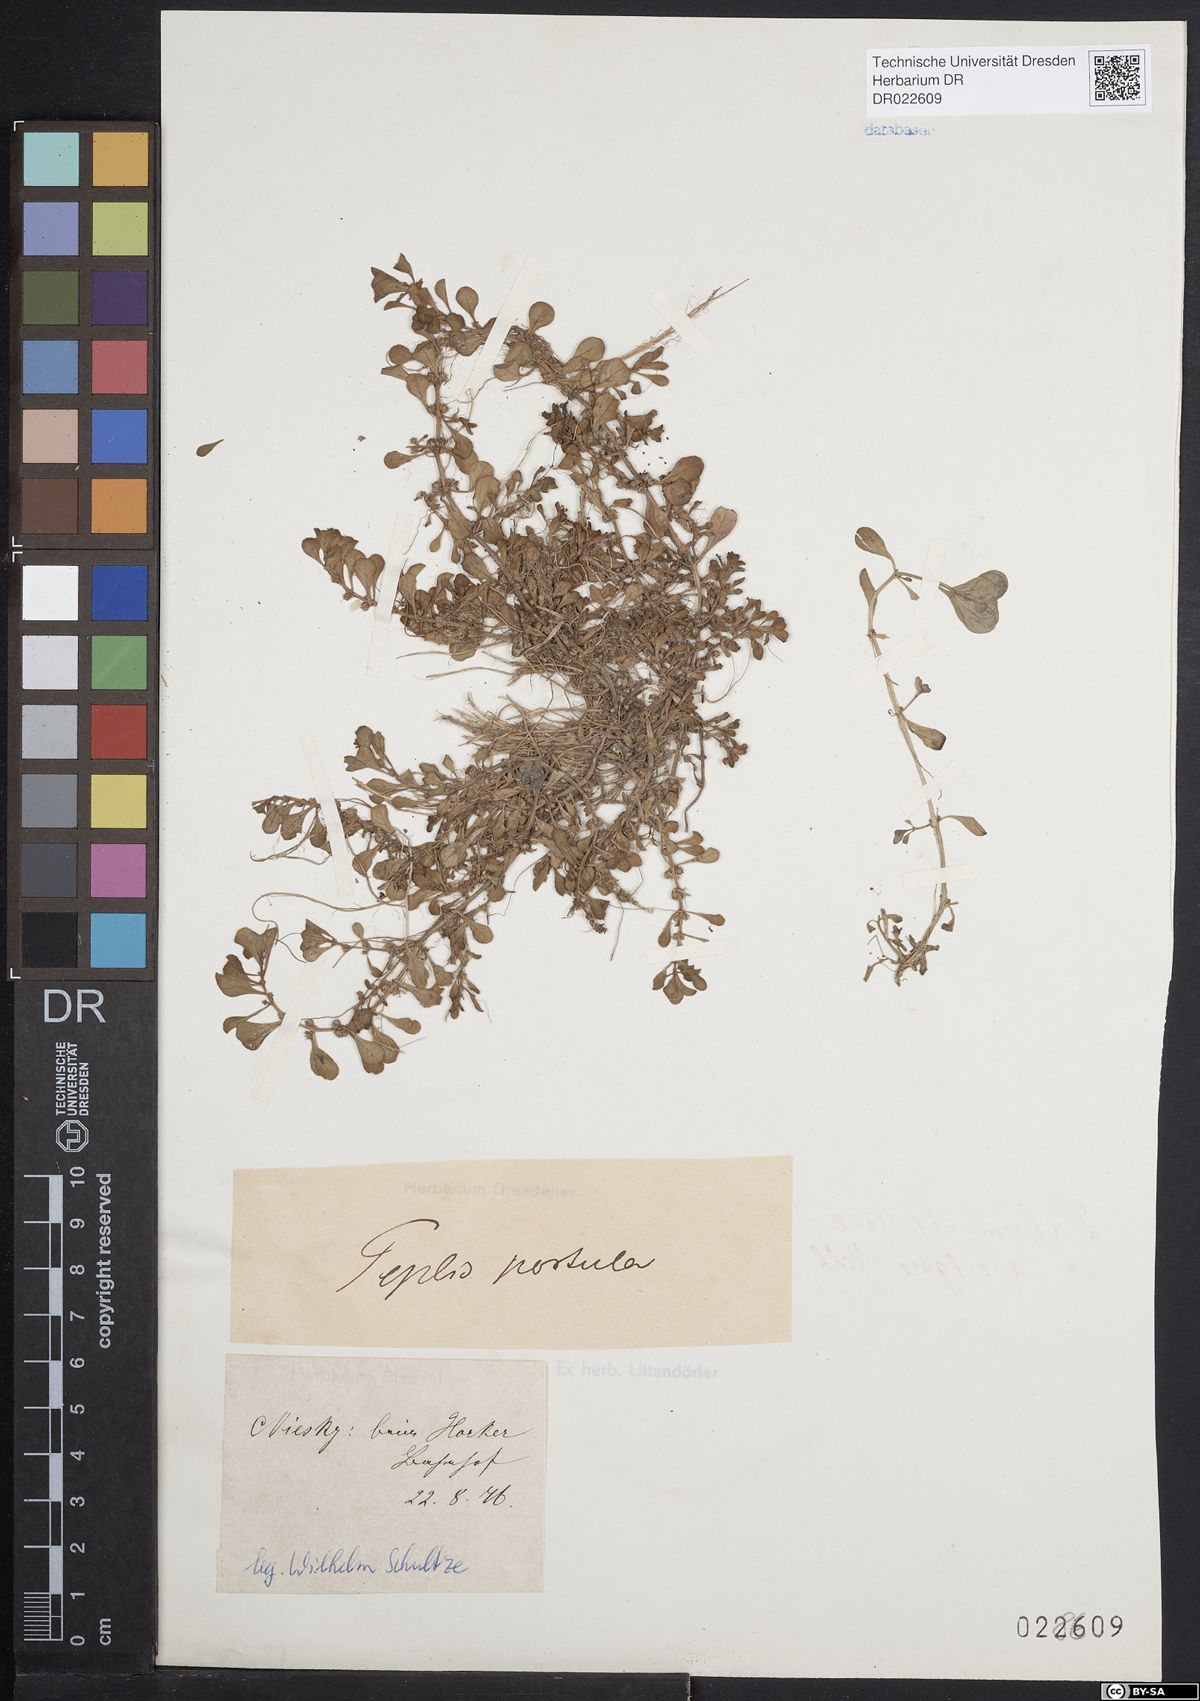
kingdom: Plantae
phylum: Tracheophyta
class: Magnoliopsida
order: Myrtales
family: Lythraceae
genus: Lythrum
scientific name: Lythrum portula
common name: Water purslane
